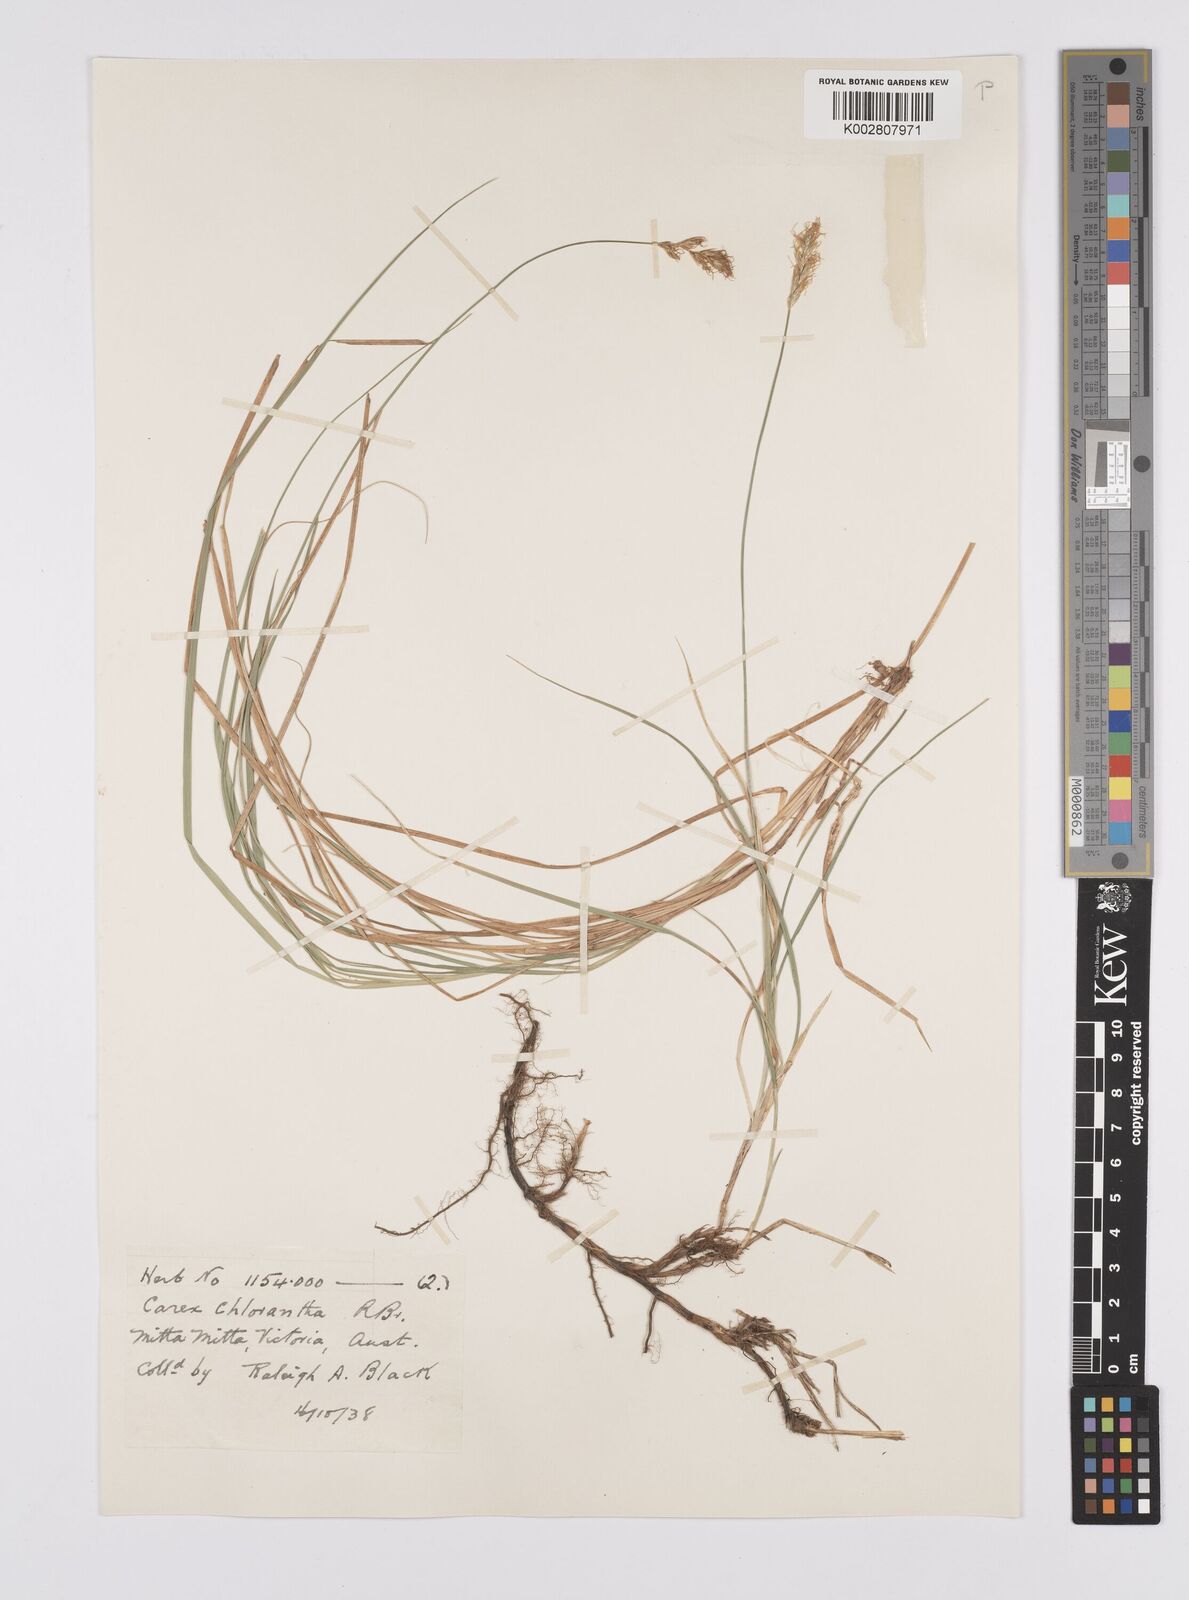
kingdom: Plantae
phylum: Tracheophyta
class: Liliopsida
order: Poales
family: Cyperaceae
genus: Carex
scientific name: Carex chlorantha
